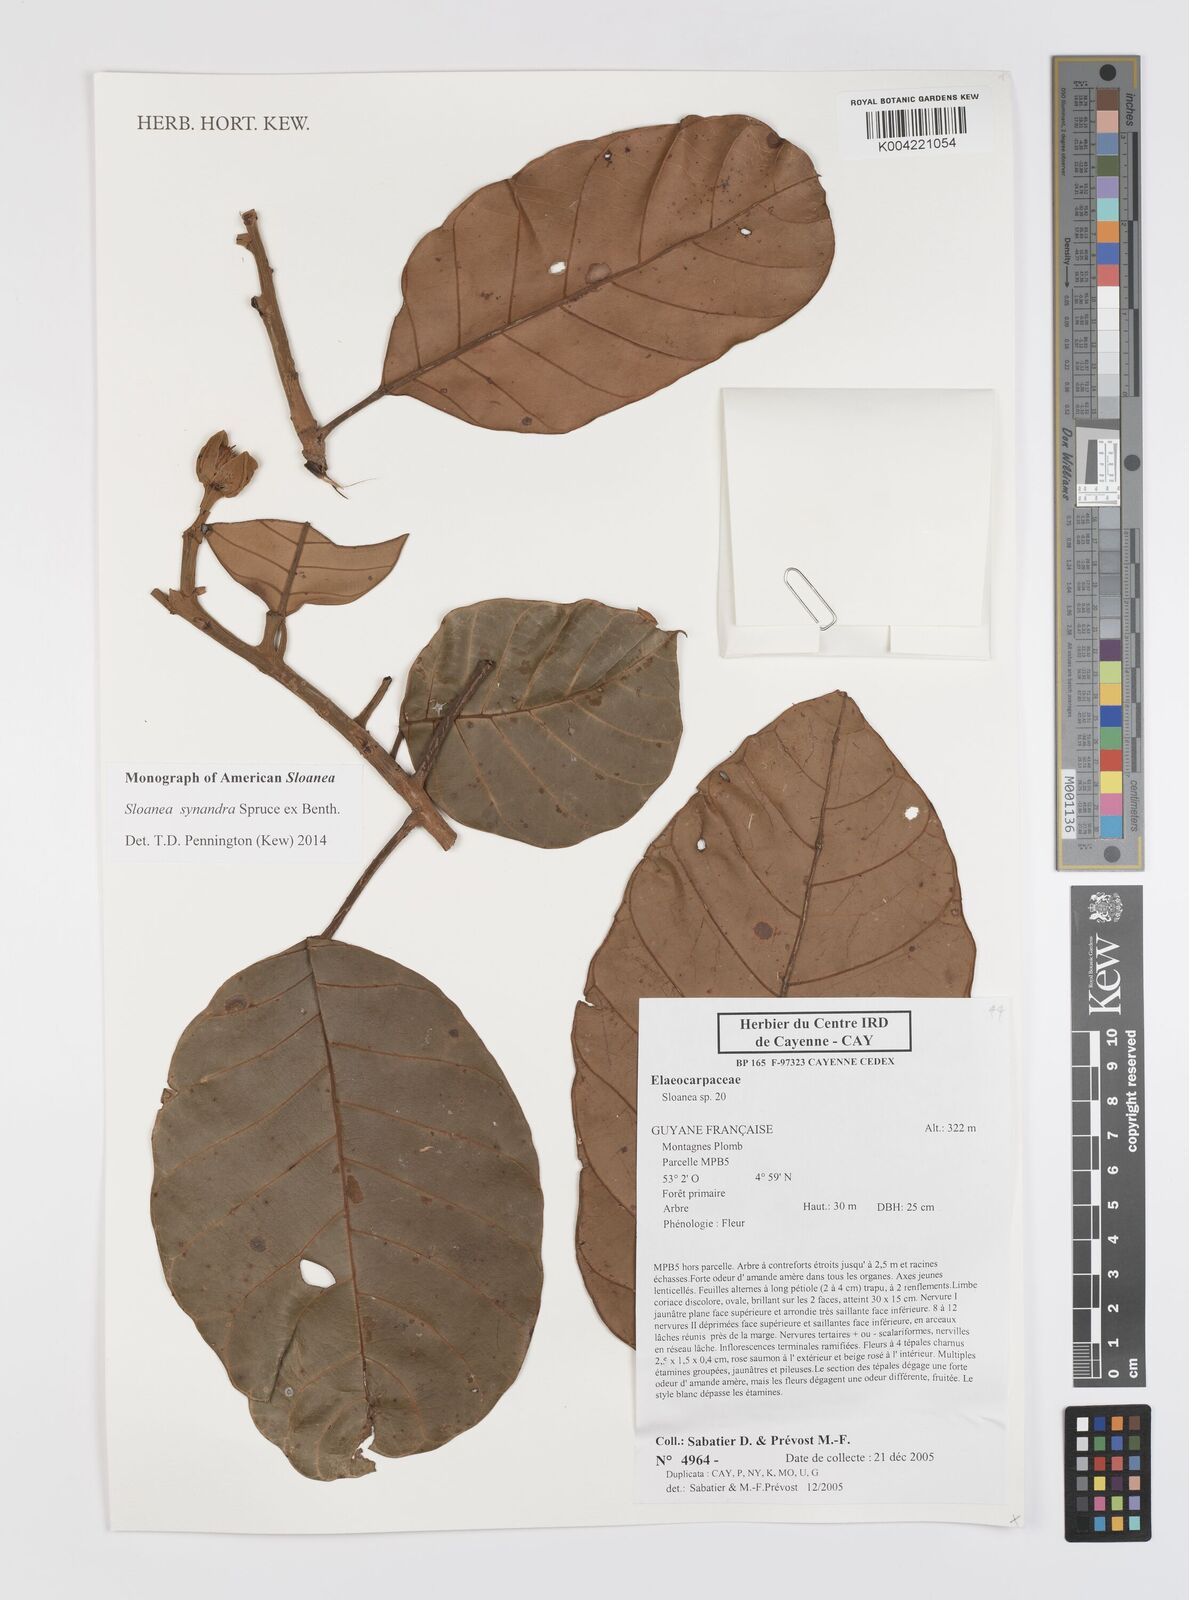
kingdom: Plantae
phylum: Tracheophyta
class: Magnoliopsida
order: Oxalidales
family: Elaeocarpaceae
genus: Sloanea
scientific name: Sloanea synandra
